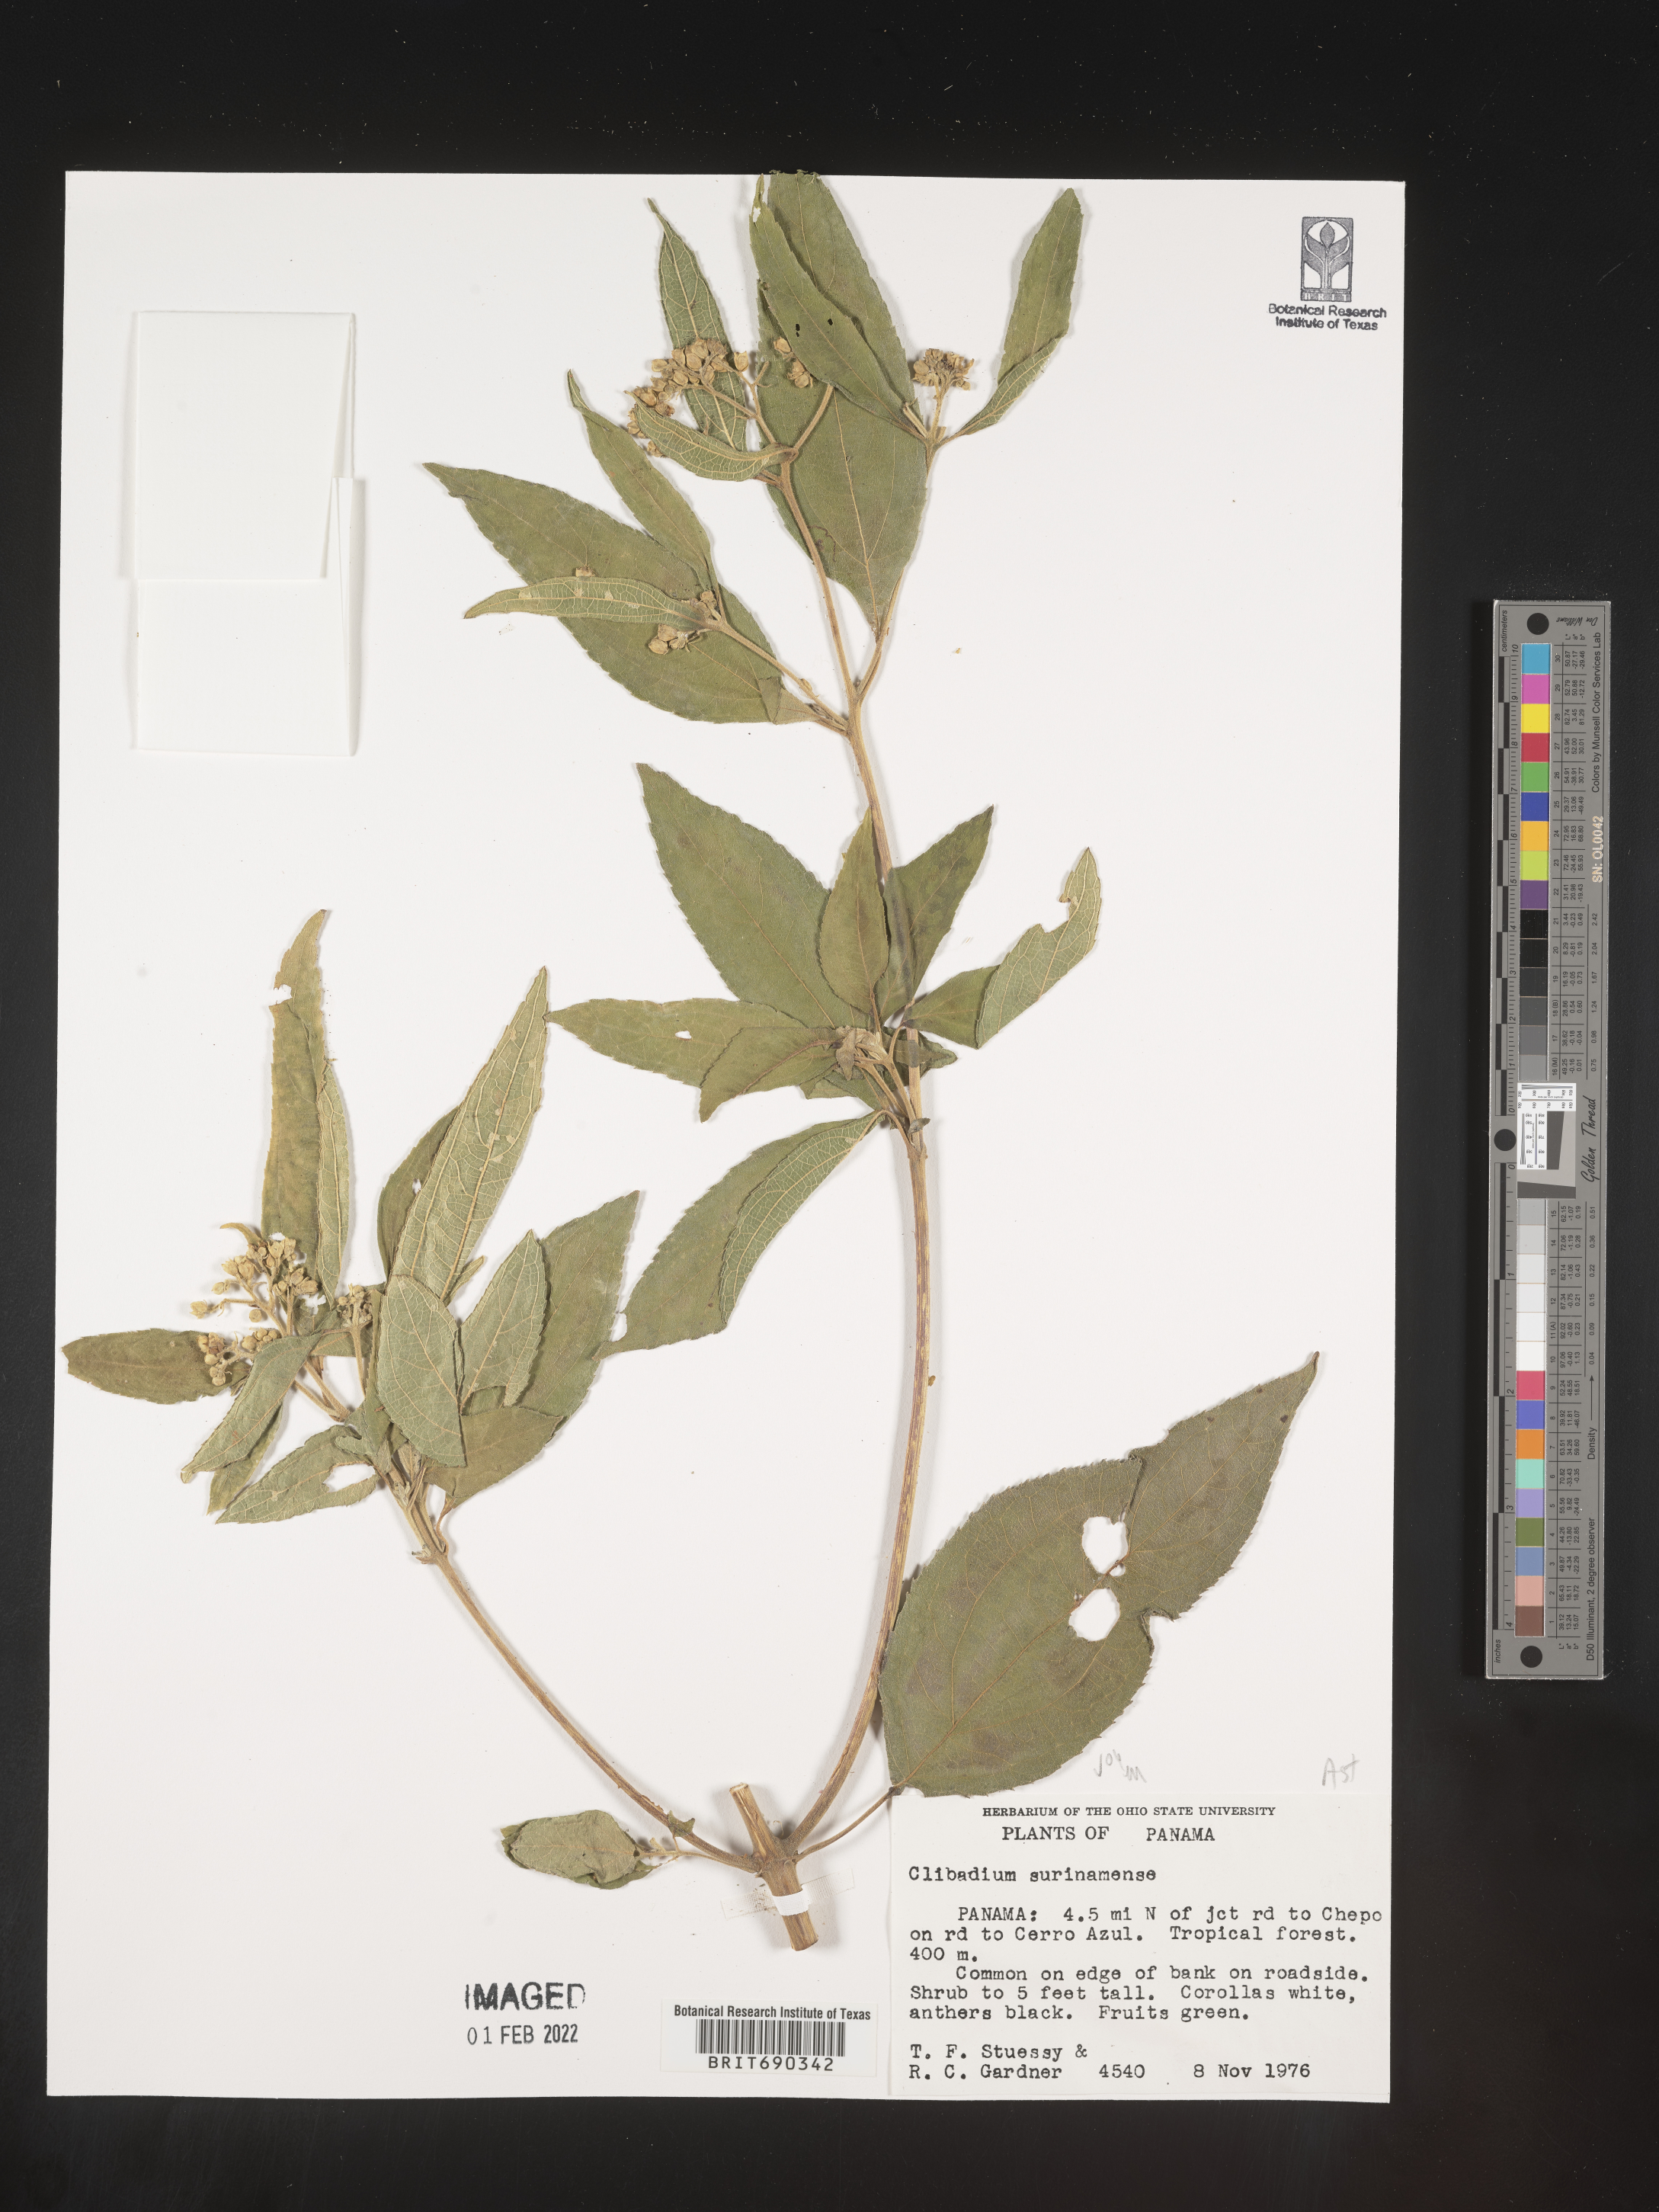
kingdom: Plantae
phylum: Tracheophyta
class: Magnoliopsida
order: Asterales
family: Asteraceae
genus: Clibadium
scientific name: Clibadium
